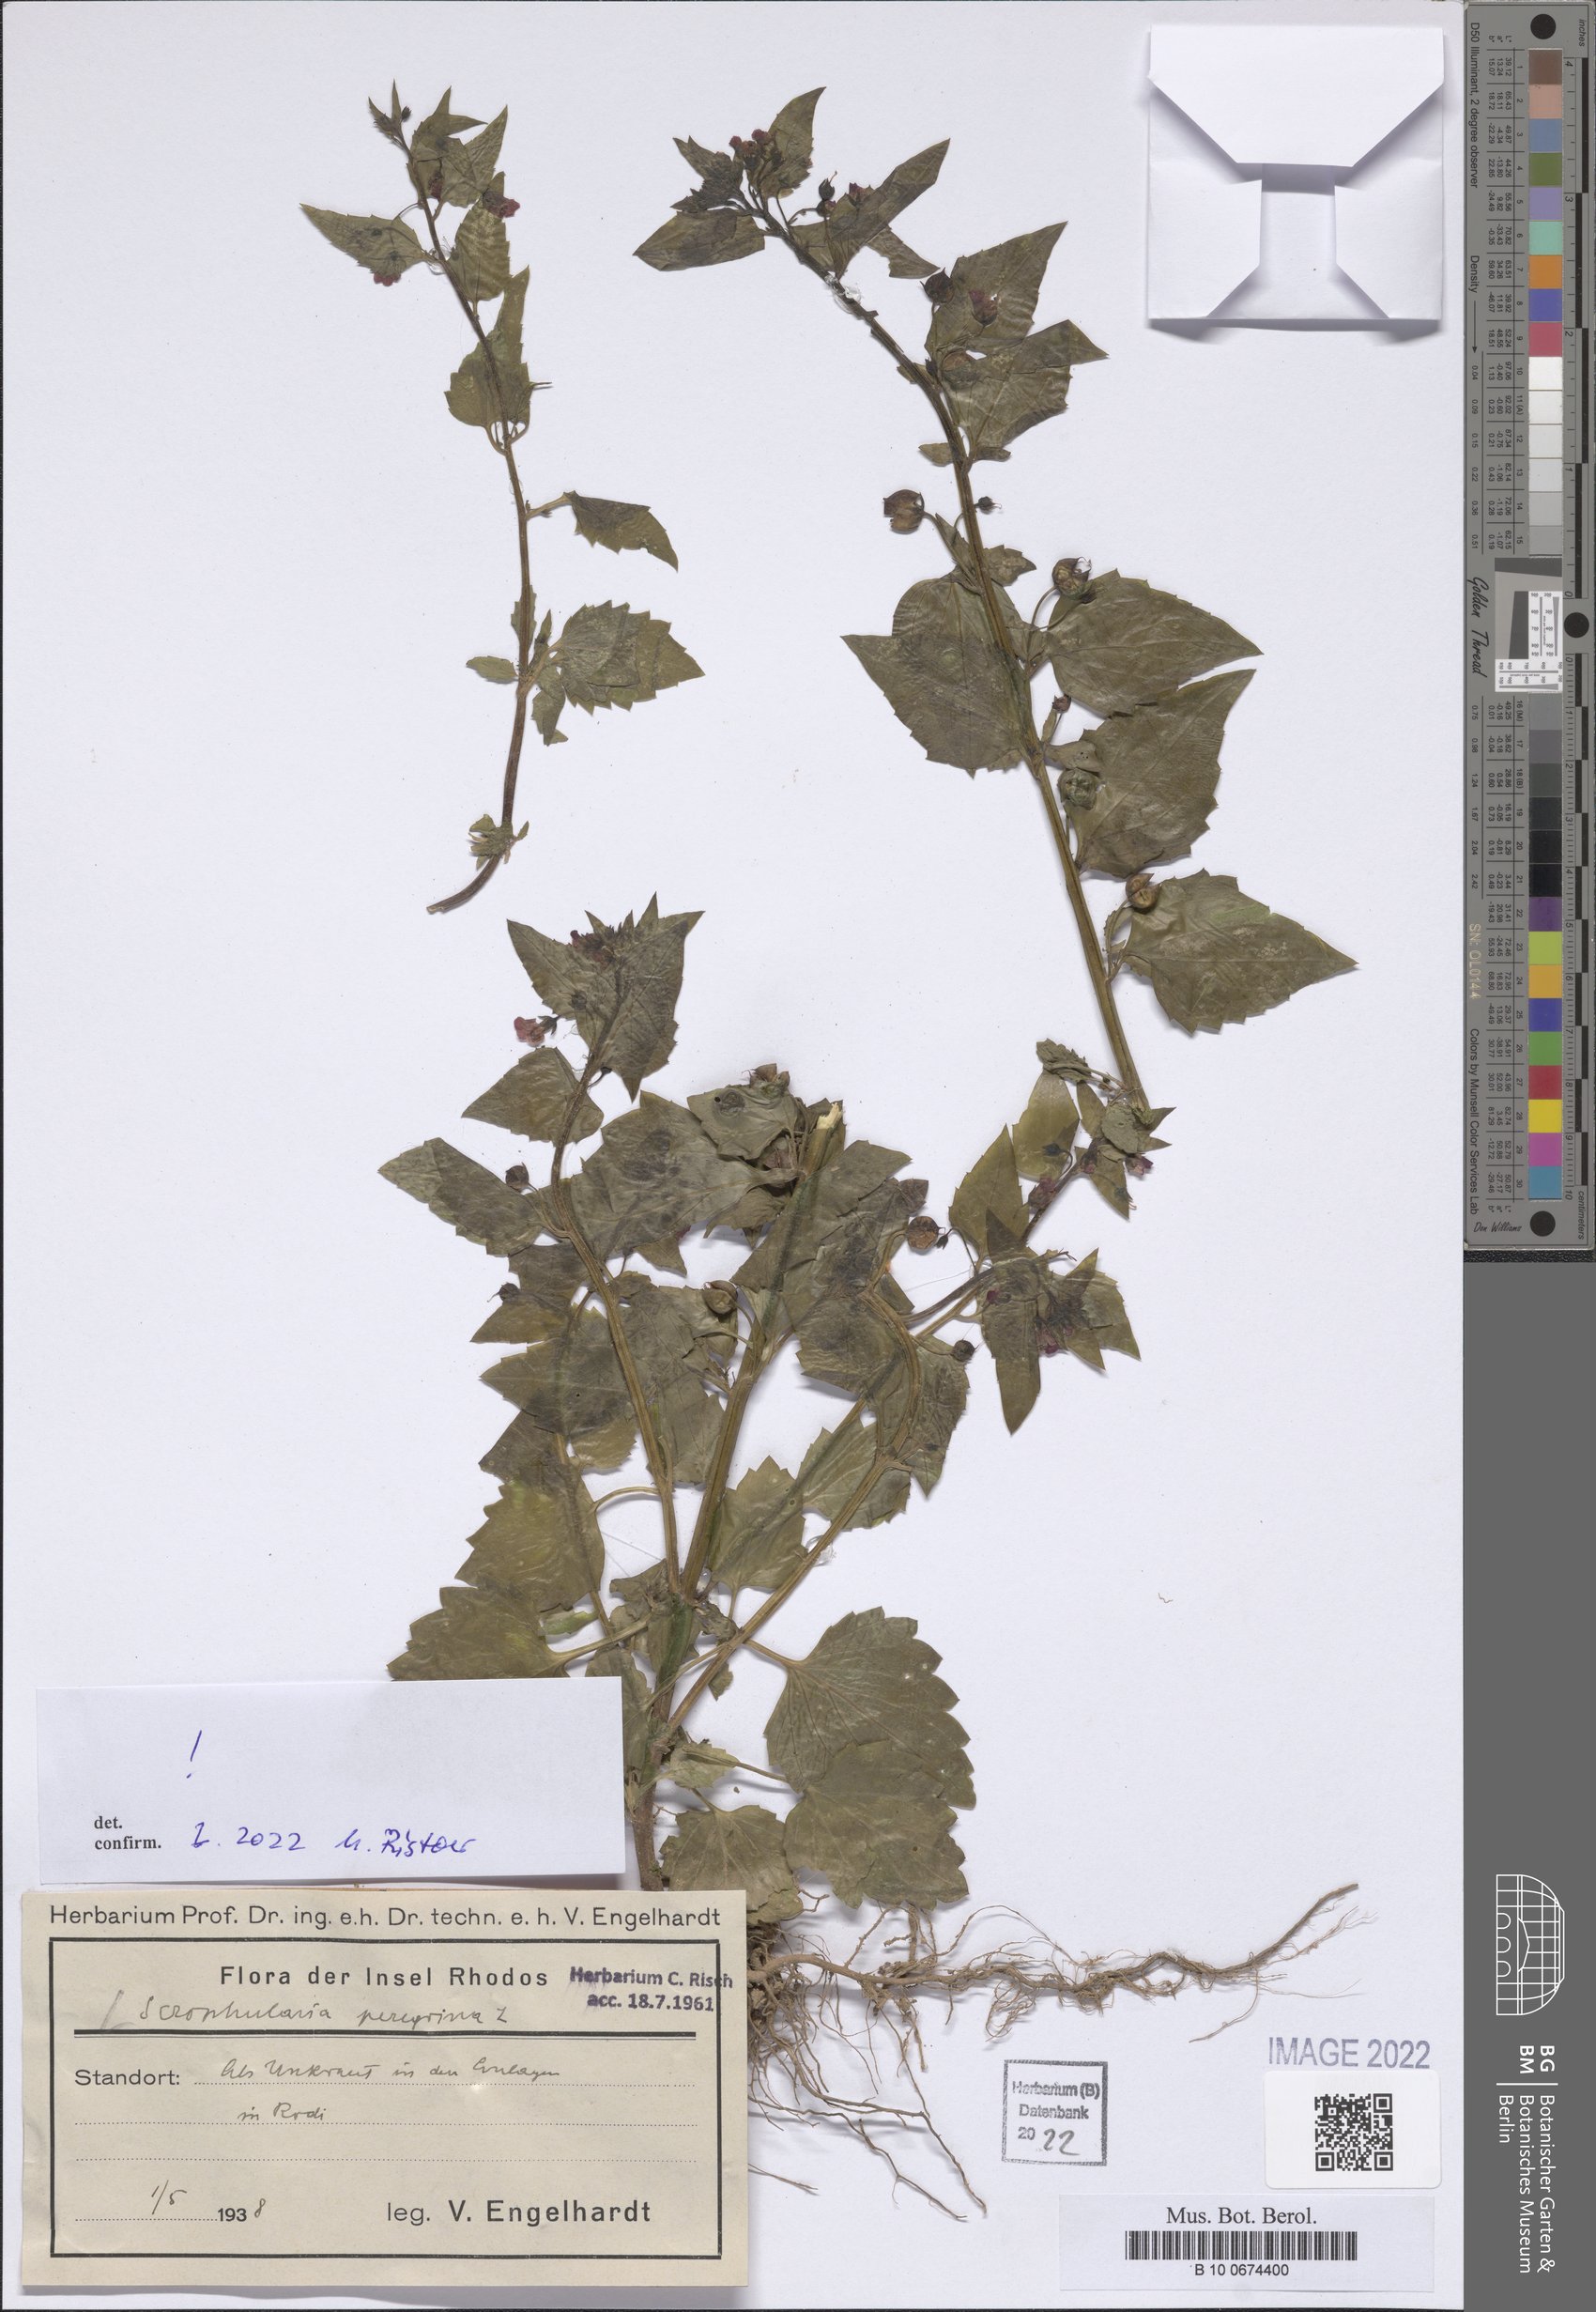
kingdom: Plantae
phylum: Tracheophyta
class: Magnoliopsida
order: Lamiales
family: Scrophulariaceae
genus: Scrophularia
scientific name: Scrophularia peregrina
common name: Mediterranean figwort
